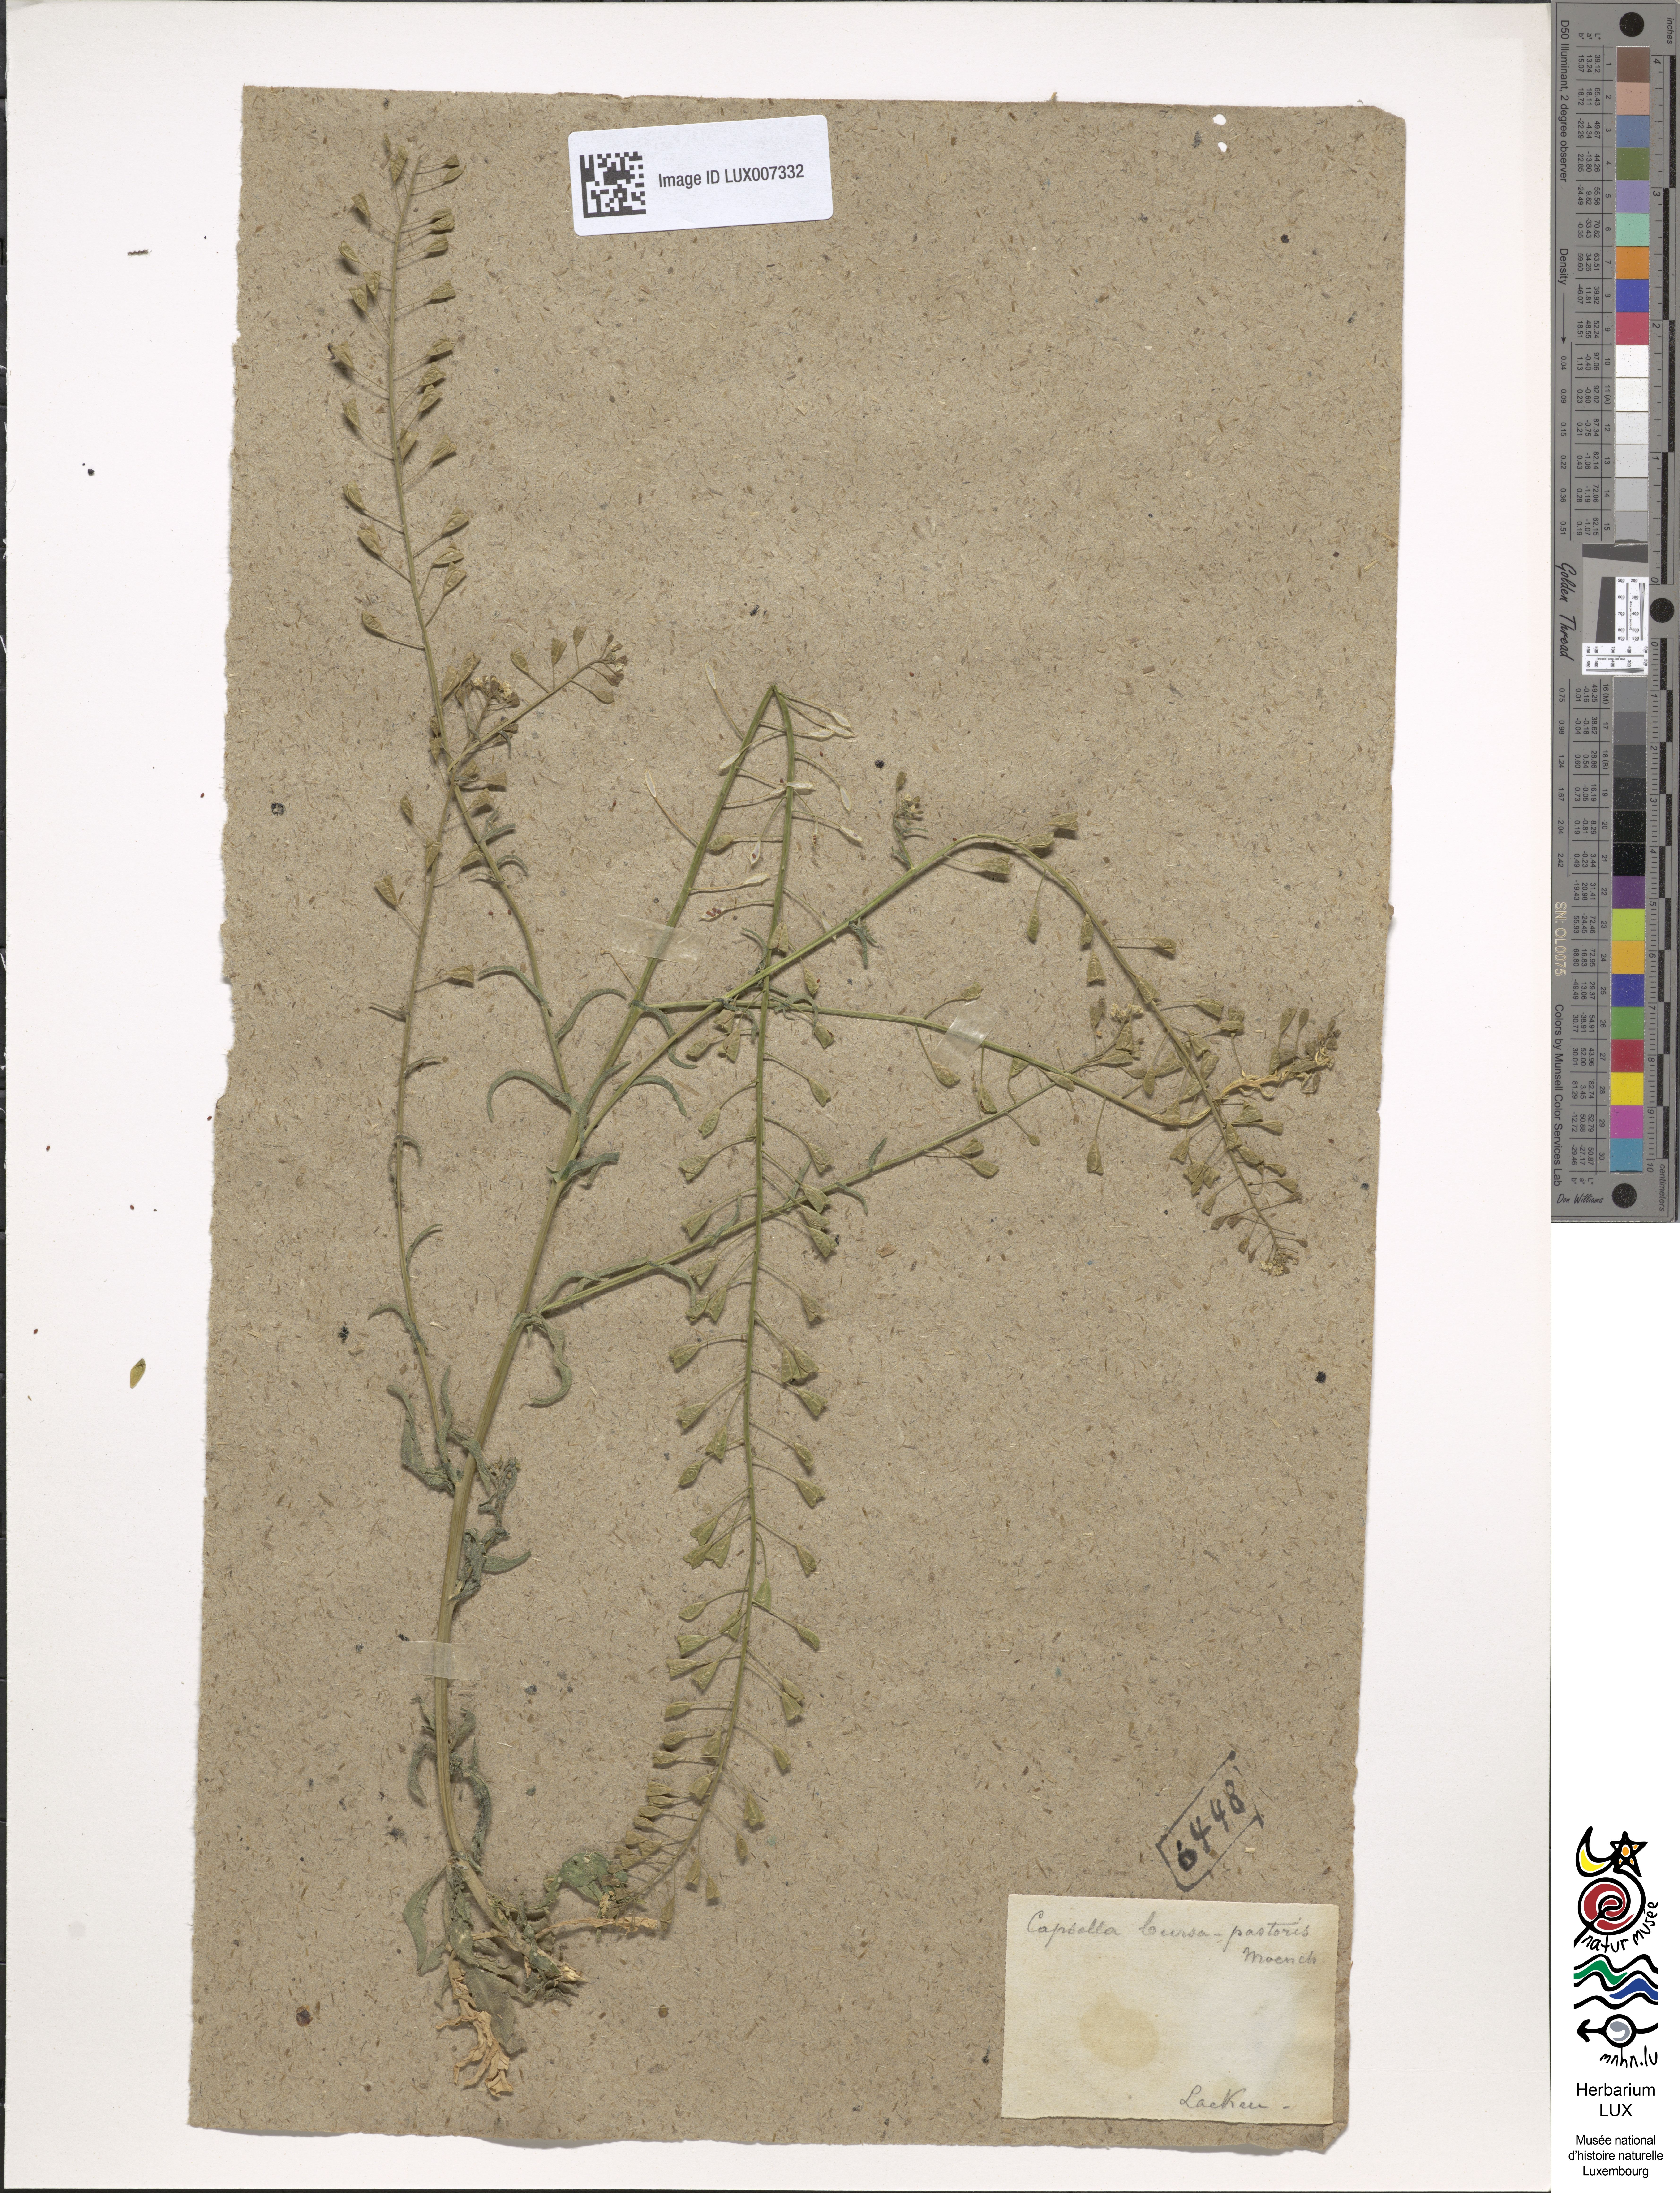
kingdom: Plantae
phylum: Tracheophyta
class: Magnoliopsida
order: Brassicales
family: Brassicaceae
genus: Capsella
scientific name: Capsella bursa-pastoris
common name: Shepherd's purse
